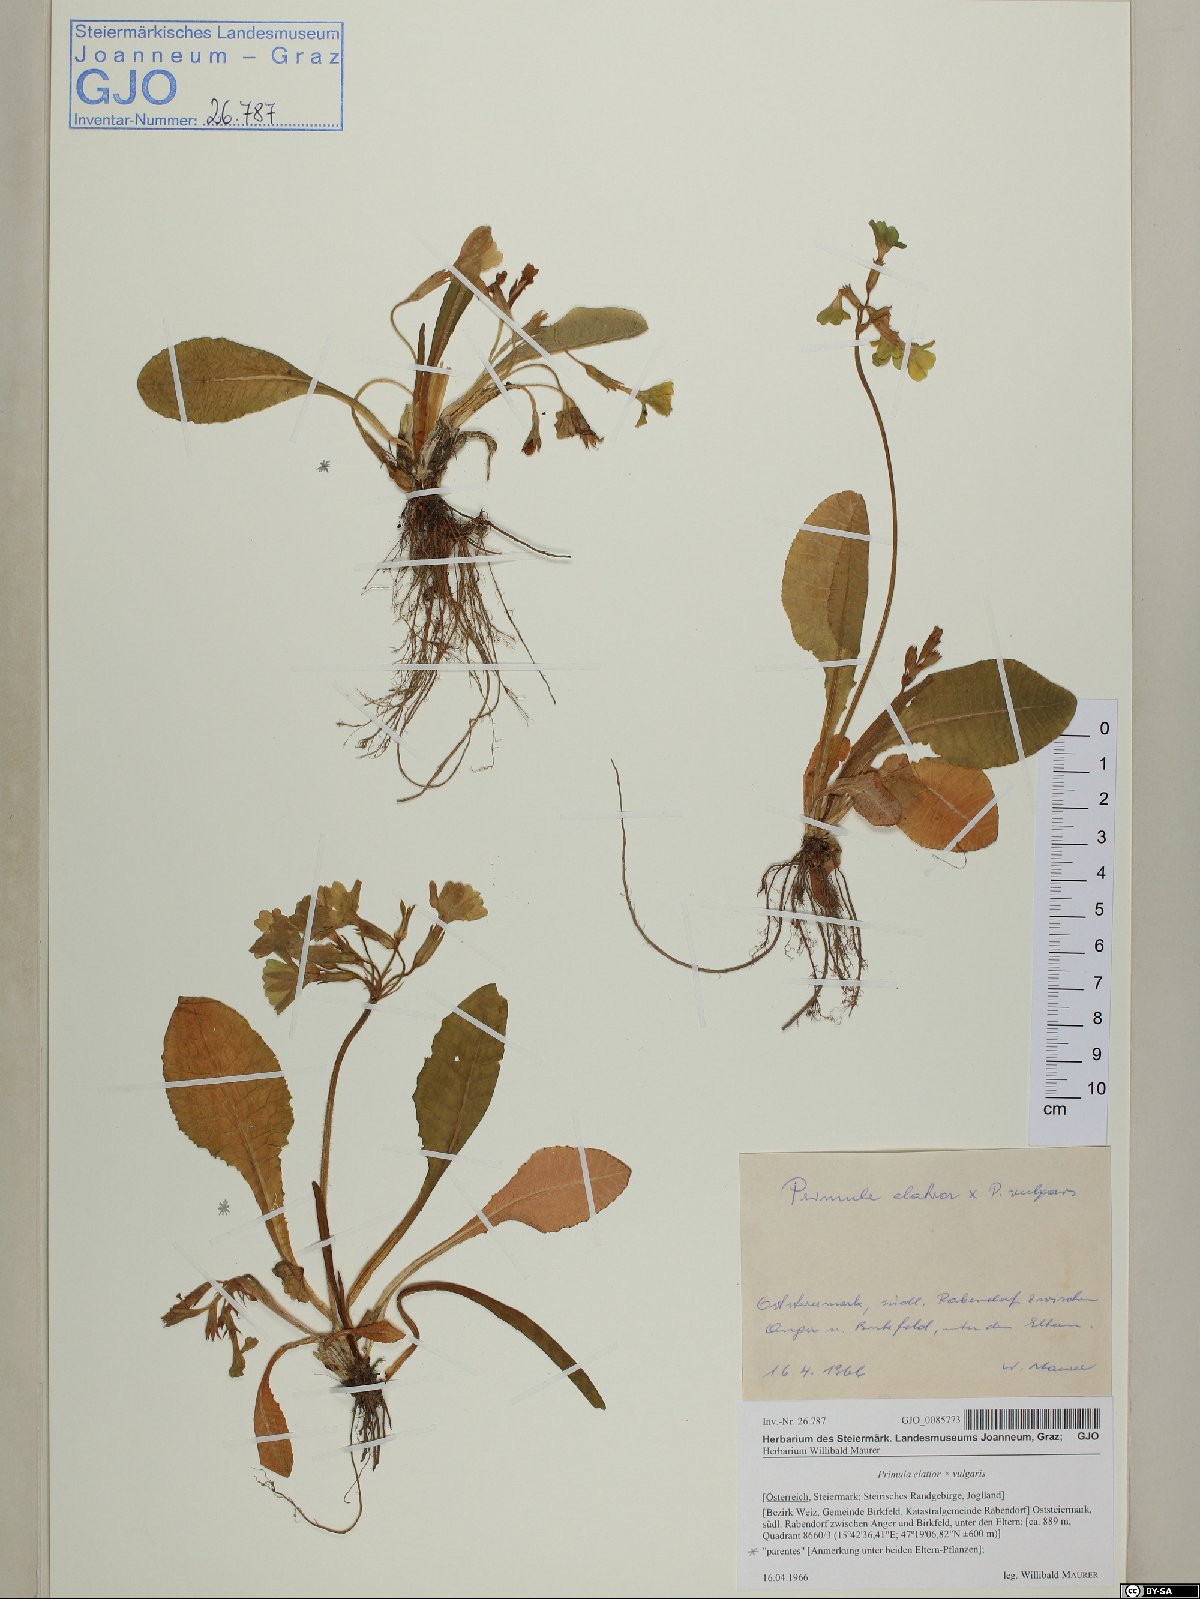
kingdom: Plantae
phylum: Tracheophyta
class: Magnoliopsida
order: Ericales
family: Primulaceae
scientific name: Primulaceae
